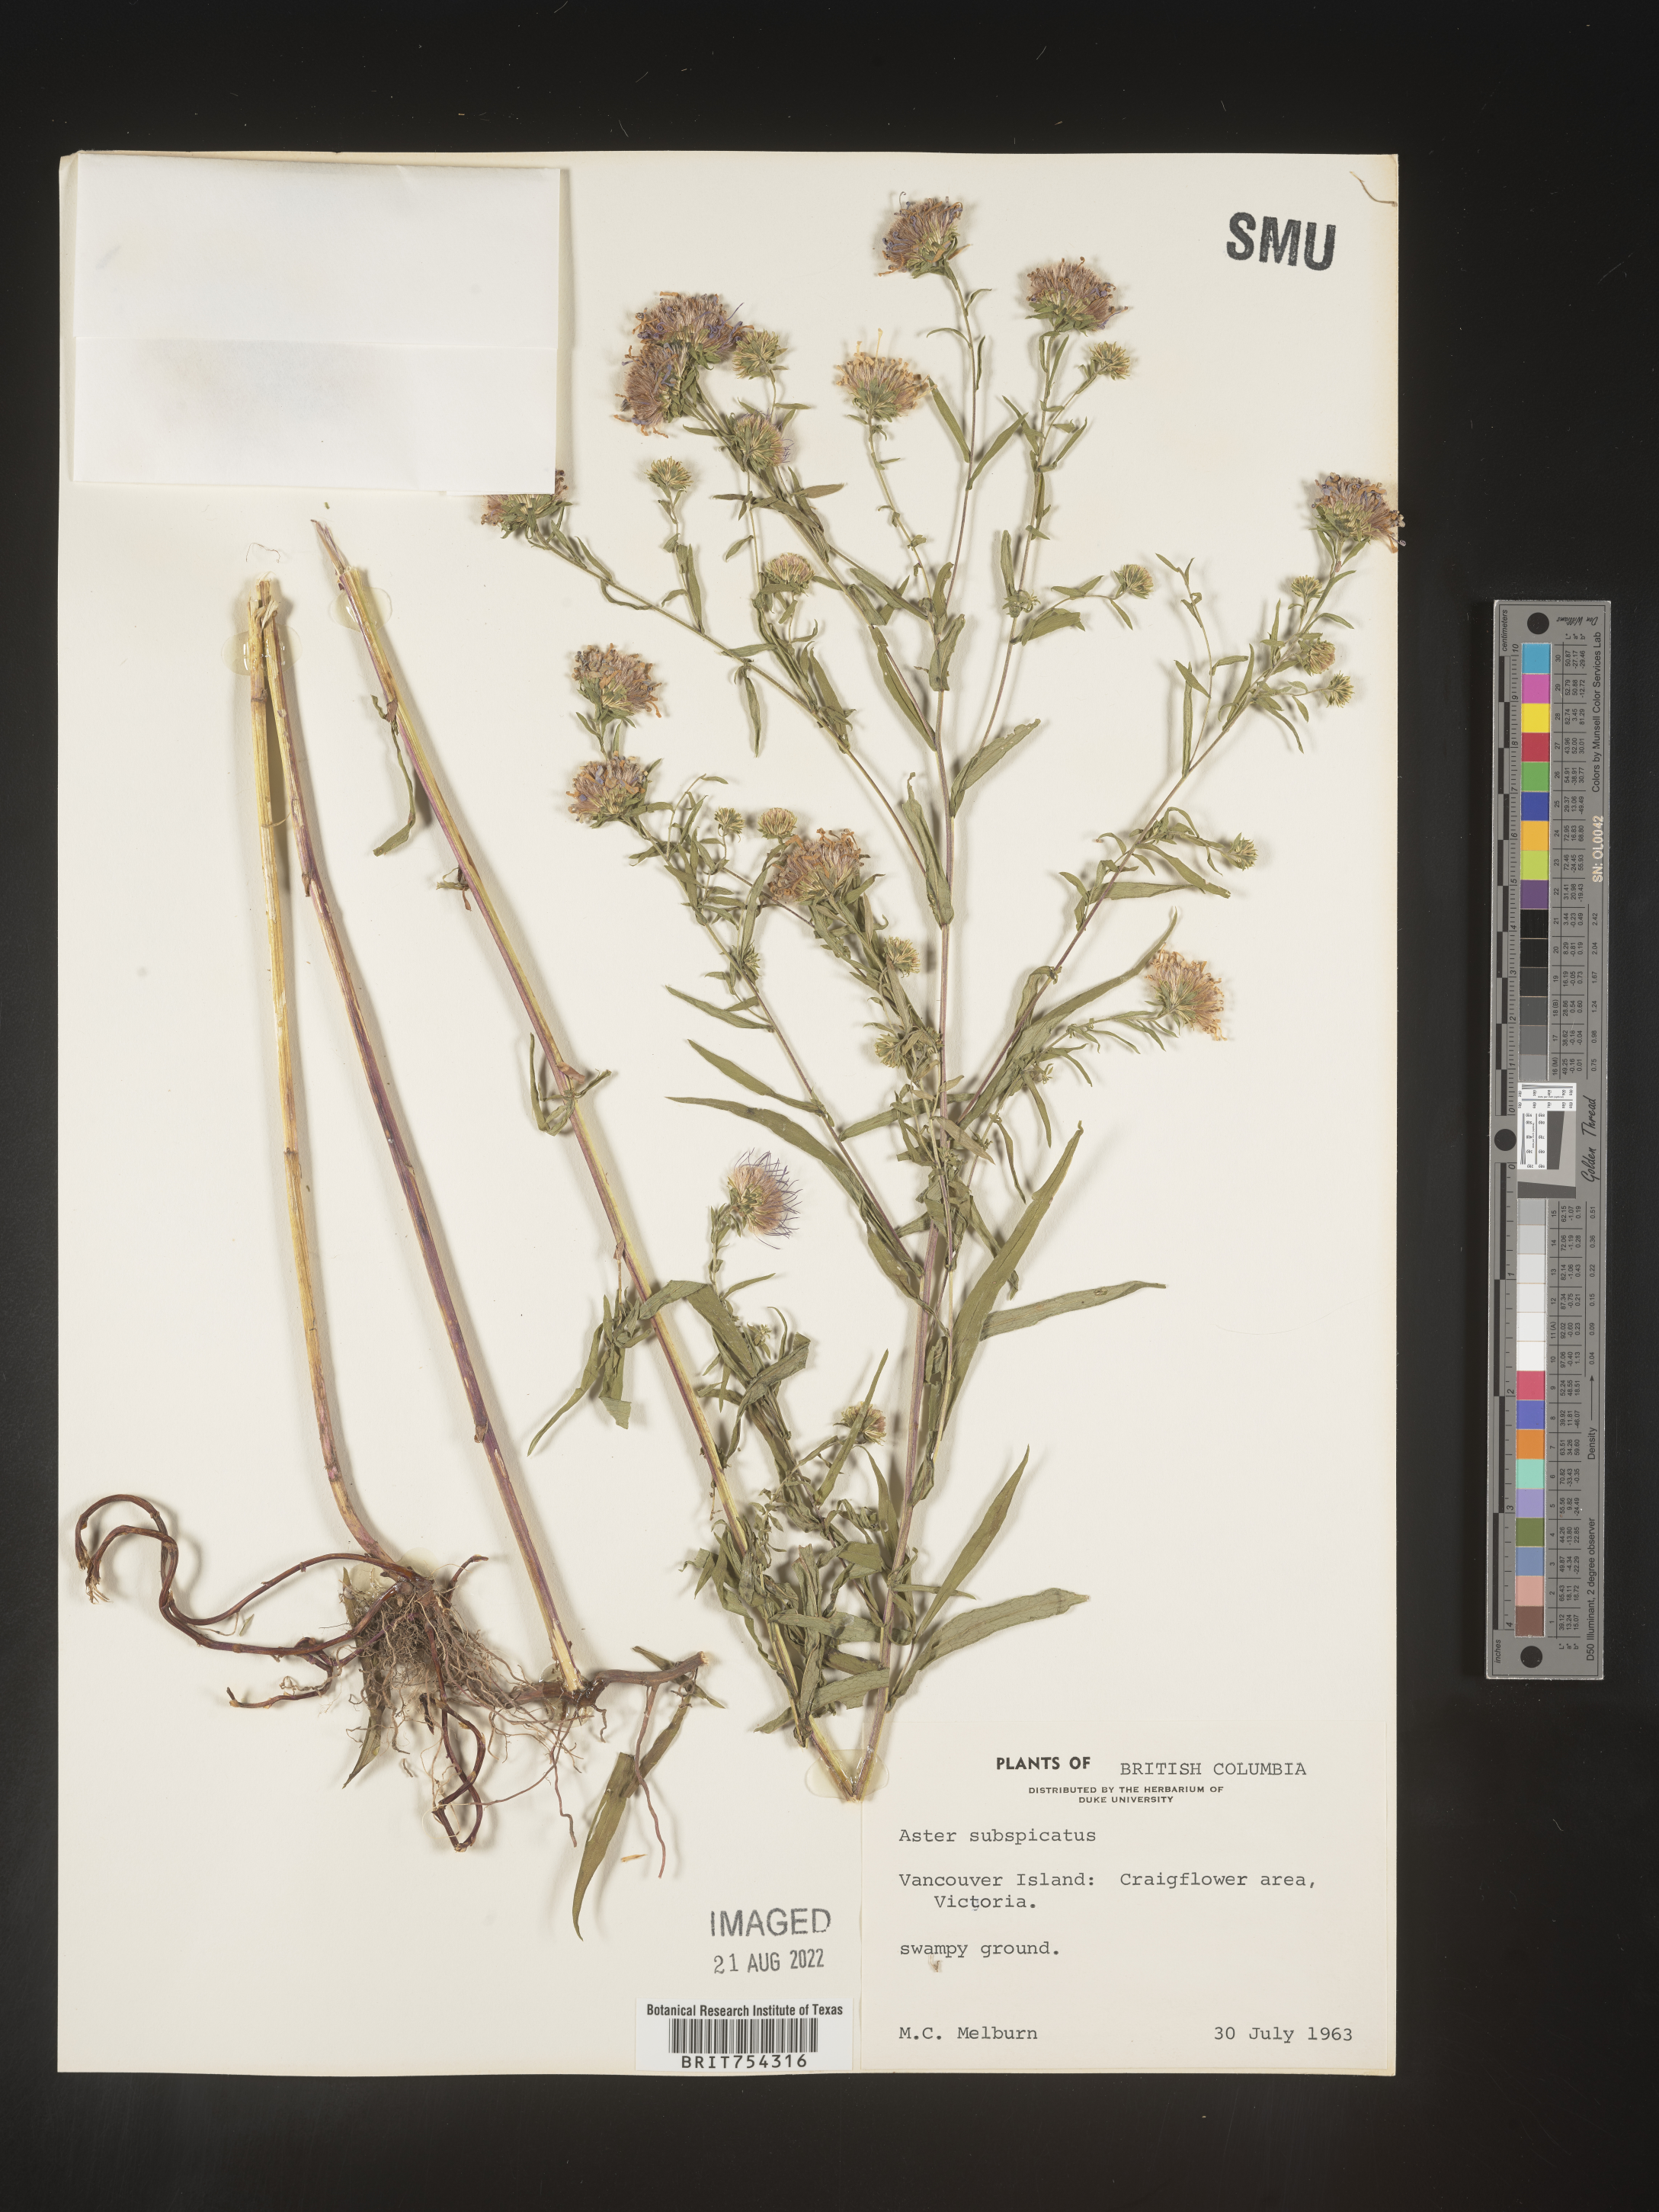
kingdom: Plantae
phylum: Tracheophyta
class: Magnoliopsida
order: Asterales
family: Asteraceae
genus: Symphyotrichum
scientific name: Symphyotrichum subspicatum
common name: Douglas' aster
